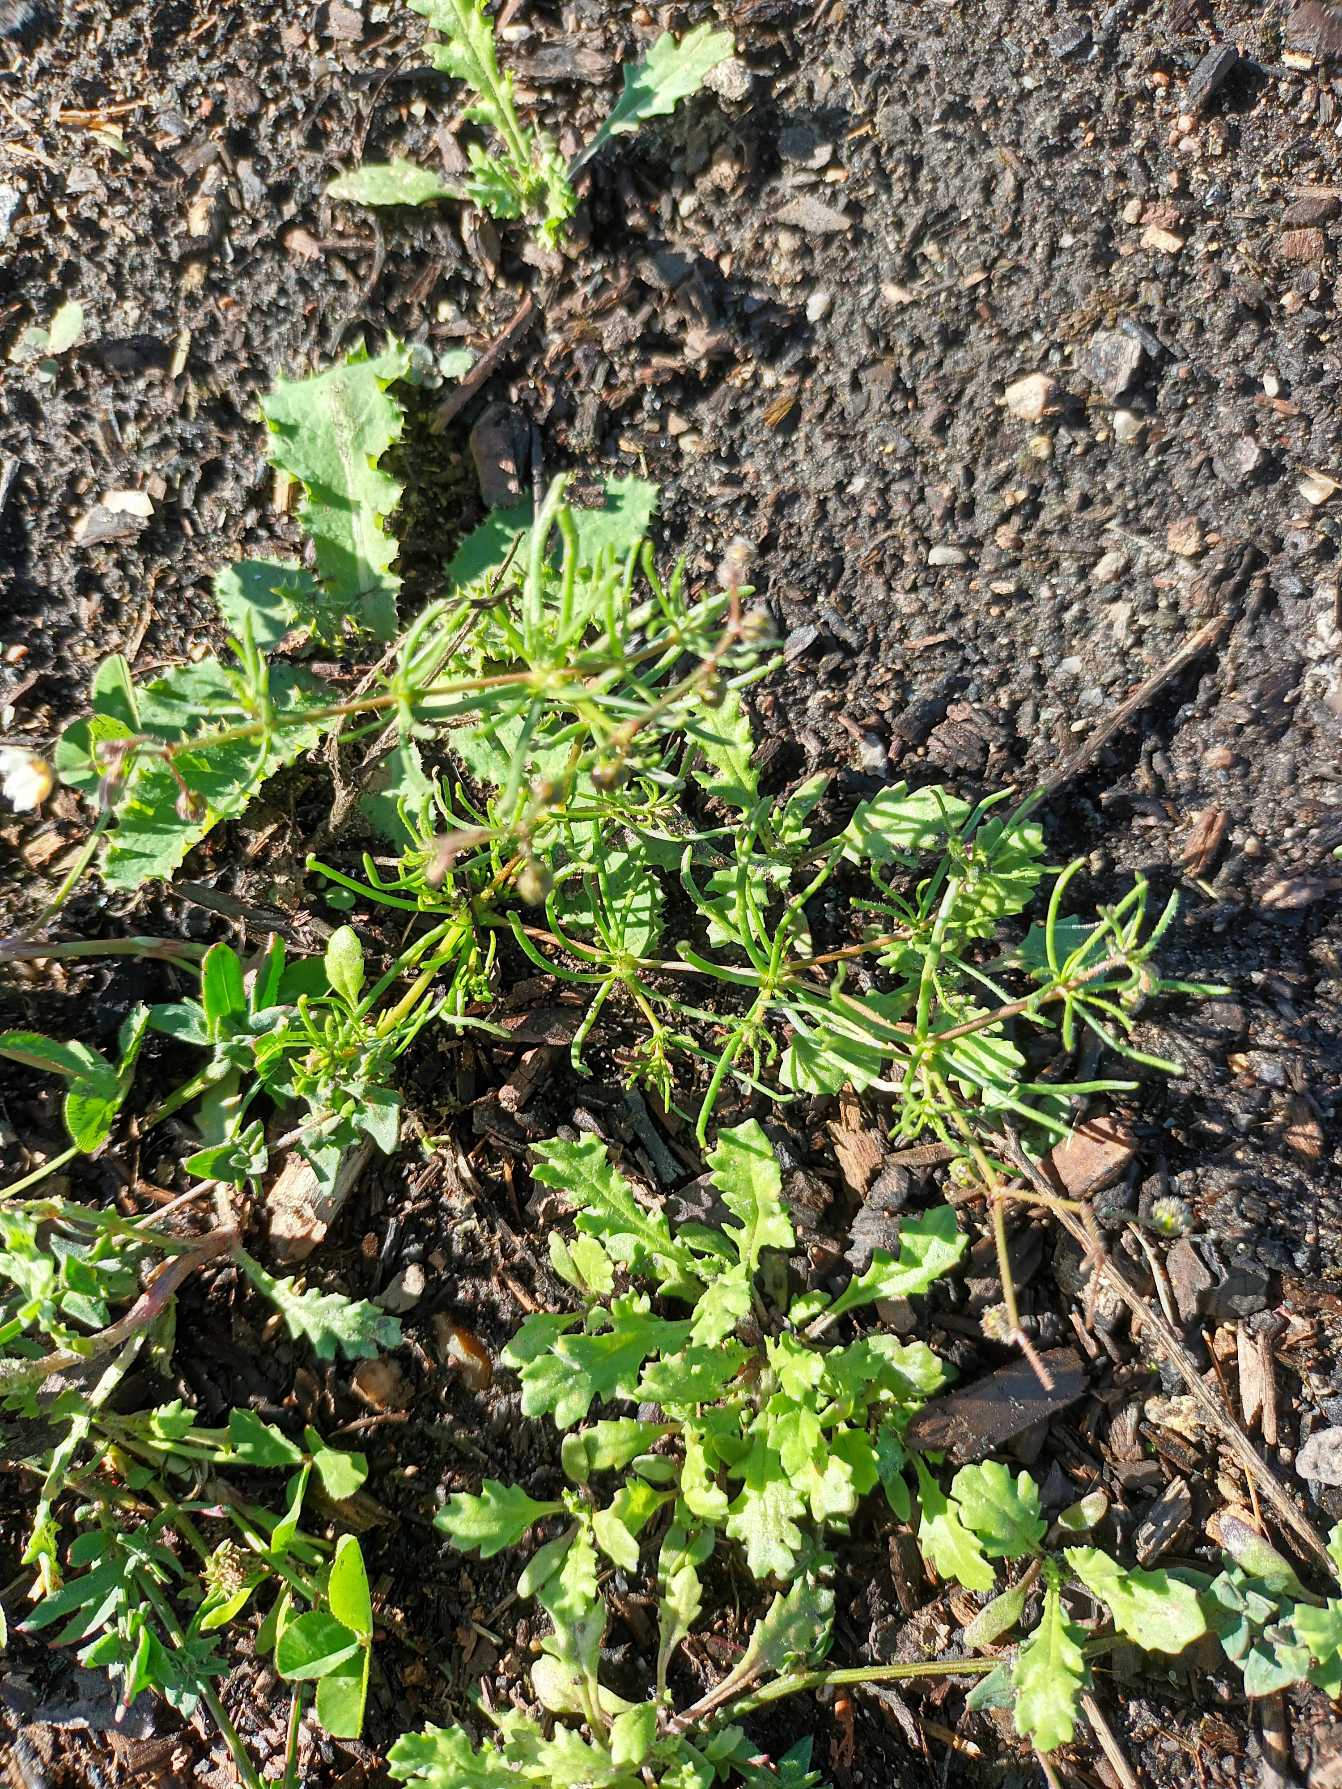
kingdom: Plantae
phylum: Tracheophyta
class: Magnoliopsida
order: Caryophyllales
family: Caryophyllaceae
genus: Spergula
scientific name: Spergula arvensis
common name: Almindelig spergel (underart)
